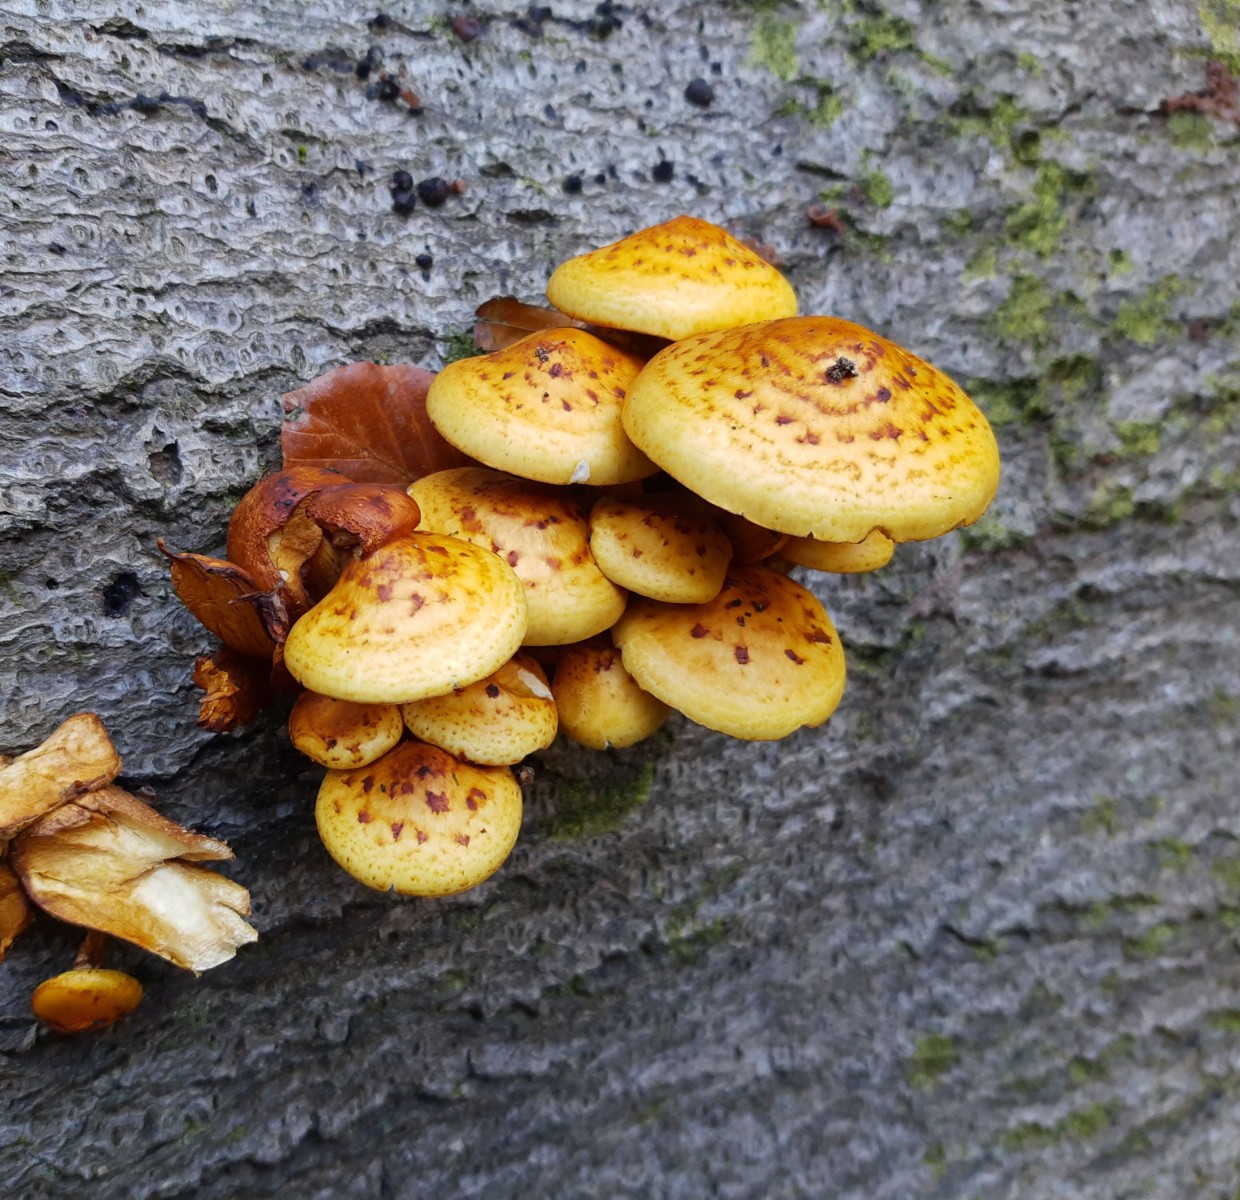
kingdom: Fungi
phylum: Basidiomycota
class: Agaricomycetes
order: Agaricales
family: Strophariaceae
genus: Pholiota
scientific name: Pholiota adiposa
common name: højtsiddende skælhat
